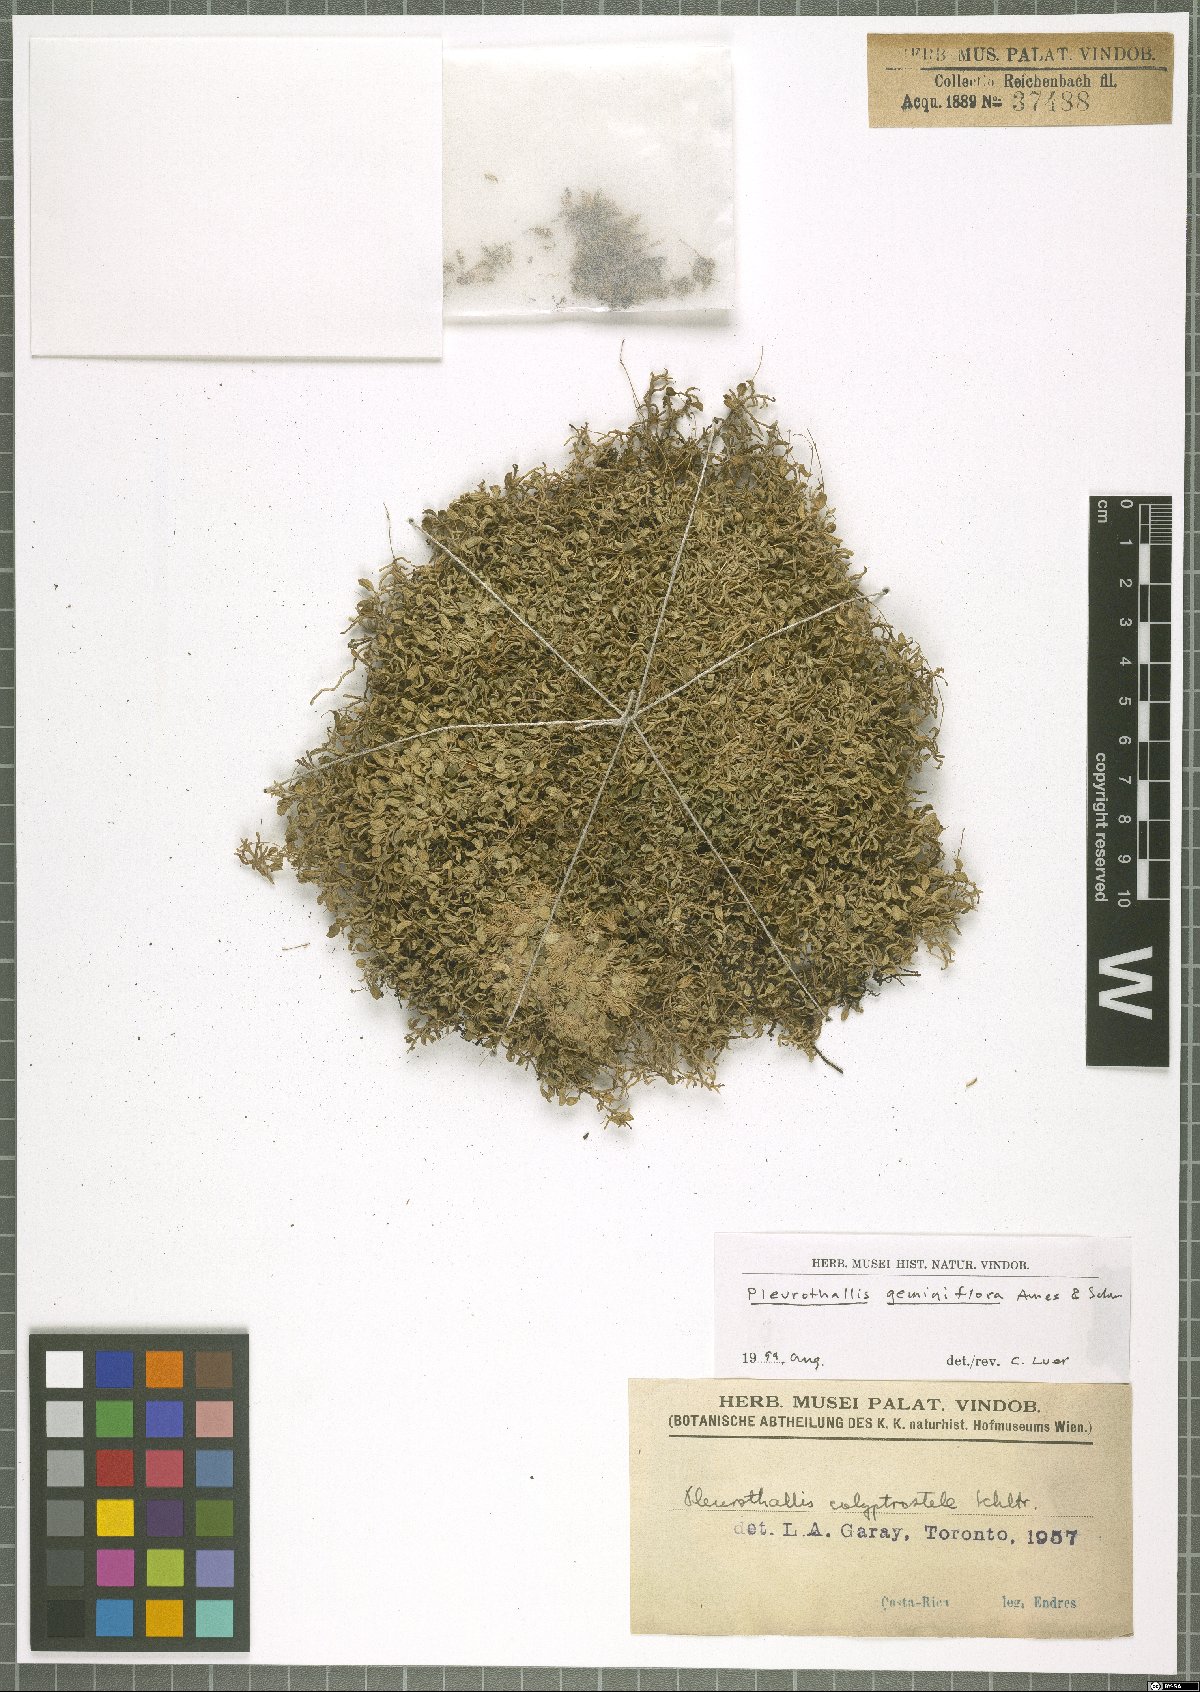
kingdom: Plantae
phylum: Tracheophyta
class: Liliopsida
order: Asparagales
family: Orchidaceae
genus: Specklinia
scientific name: Specklinia calyptrostele
